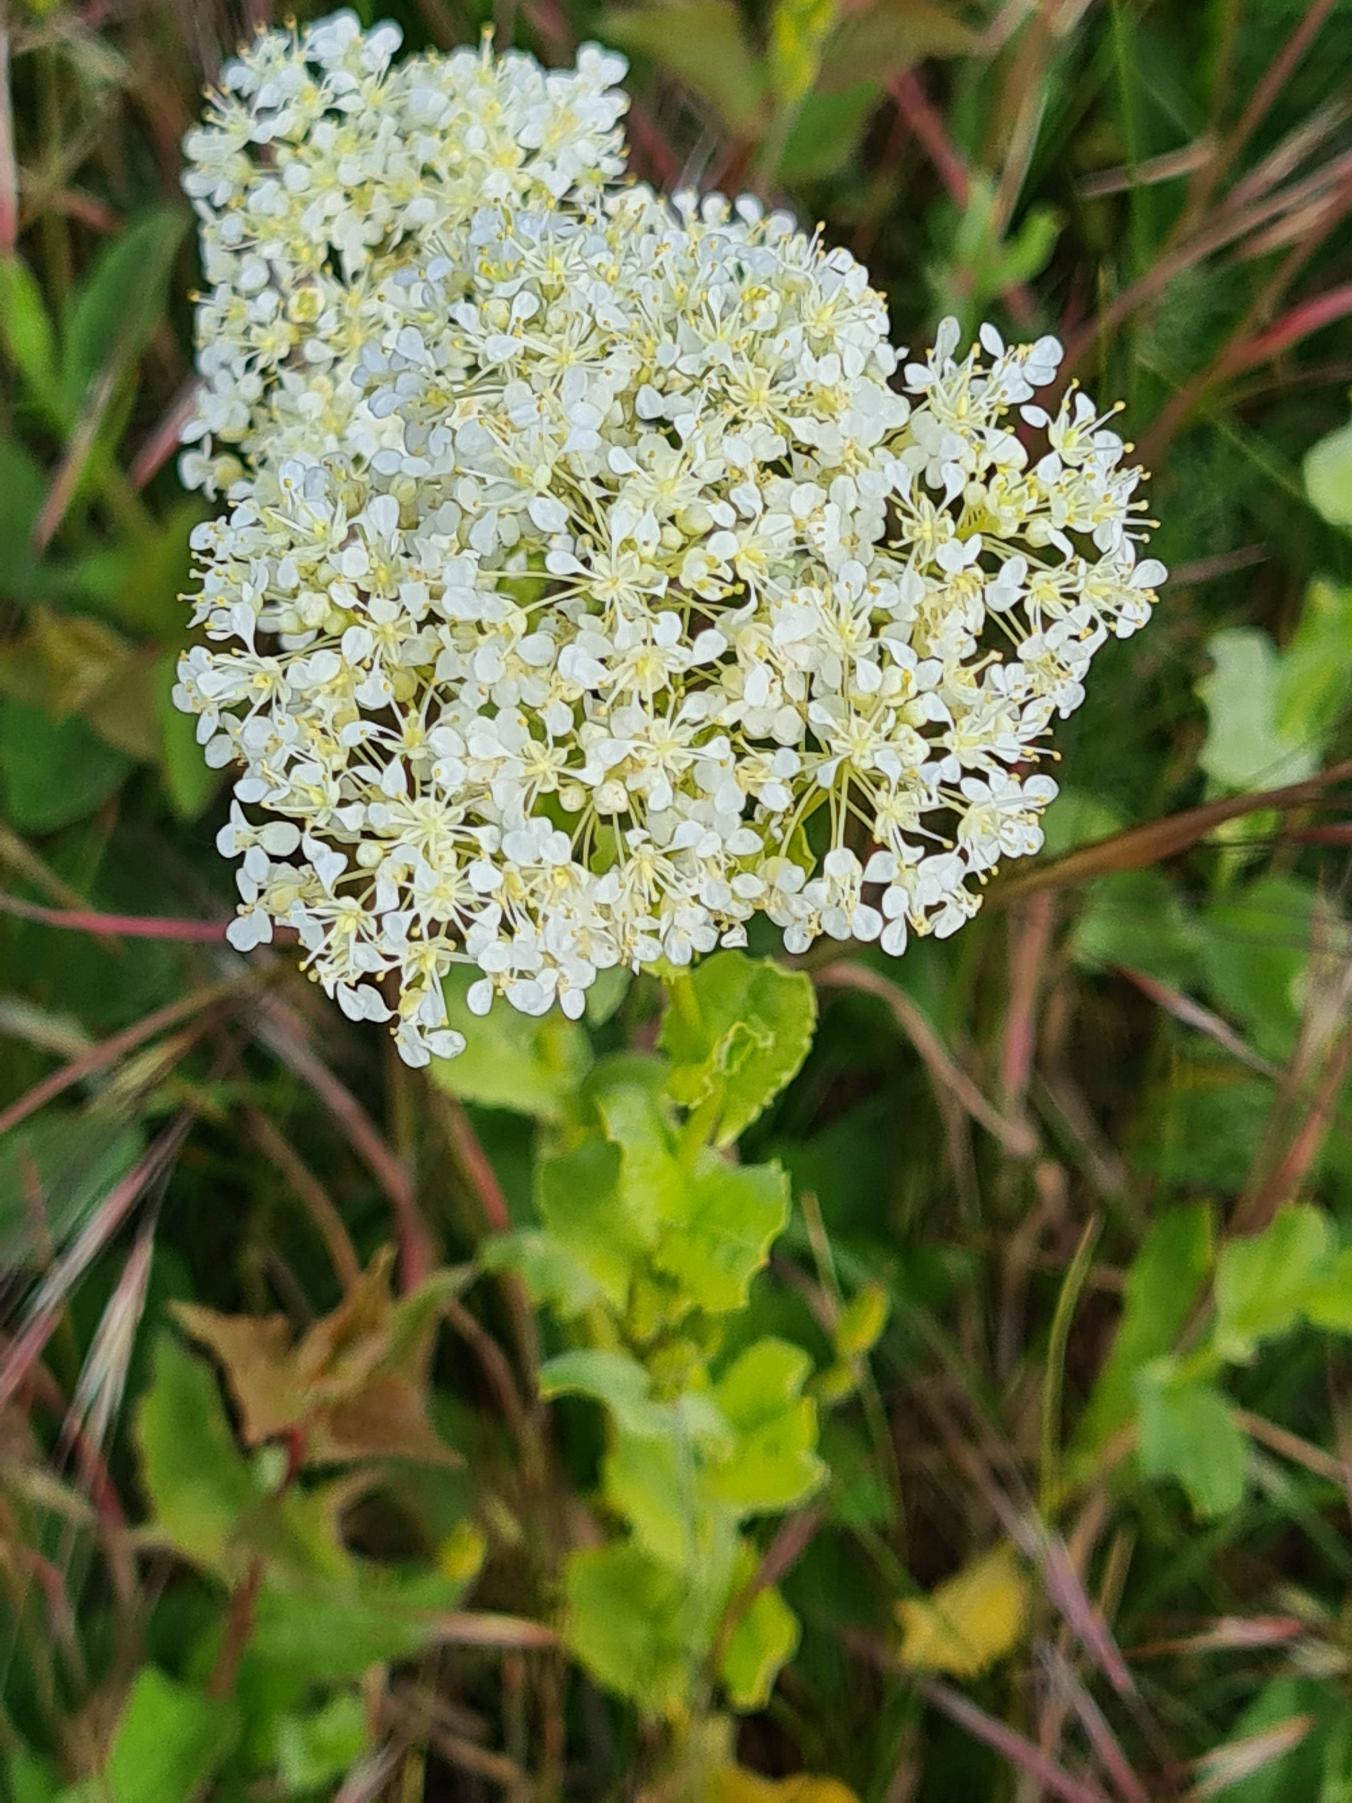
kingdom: Plantae
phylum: Tracheophyta
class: Magnoliopsida
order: Brassicales
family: Brassicaceae
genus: Lepidium
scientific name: Lepidium draba
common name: Hjerte-karse
